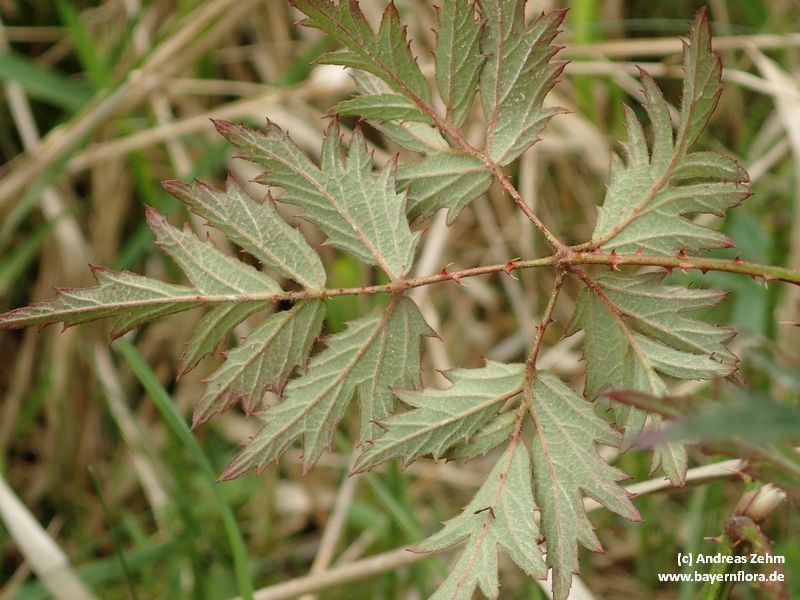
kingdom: Plantae
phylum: Tracheophyta
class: Magnoliopsida
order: Rosales
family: Rosaceae
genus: Rubus
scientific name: Rubus laciniatus
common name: Evergreen blackberry
